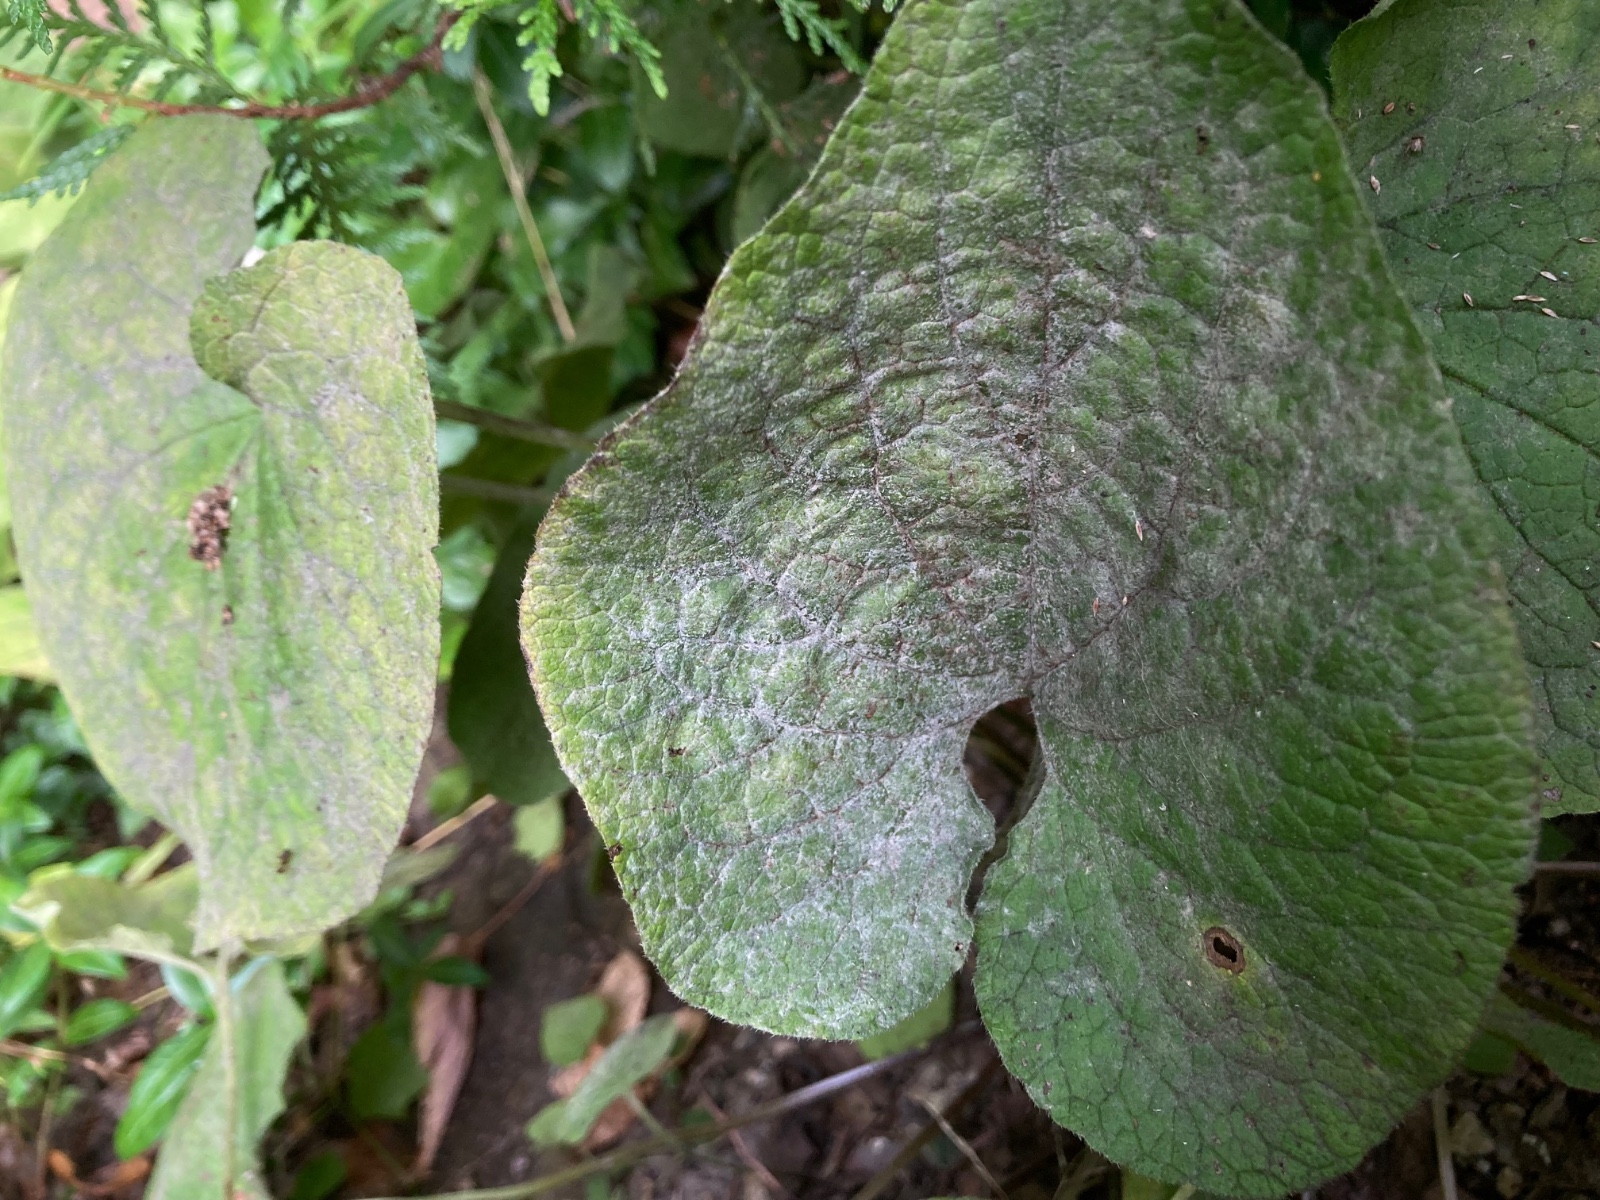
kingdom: Fungi
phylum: Ascomycota
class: Leotiomycetes
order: Helotiales
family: Erysiphaceae
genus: Golovinomyces
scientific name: Golovinomyces
